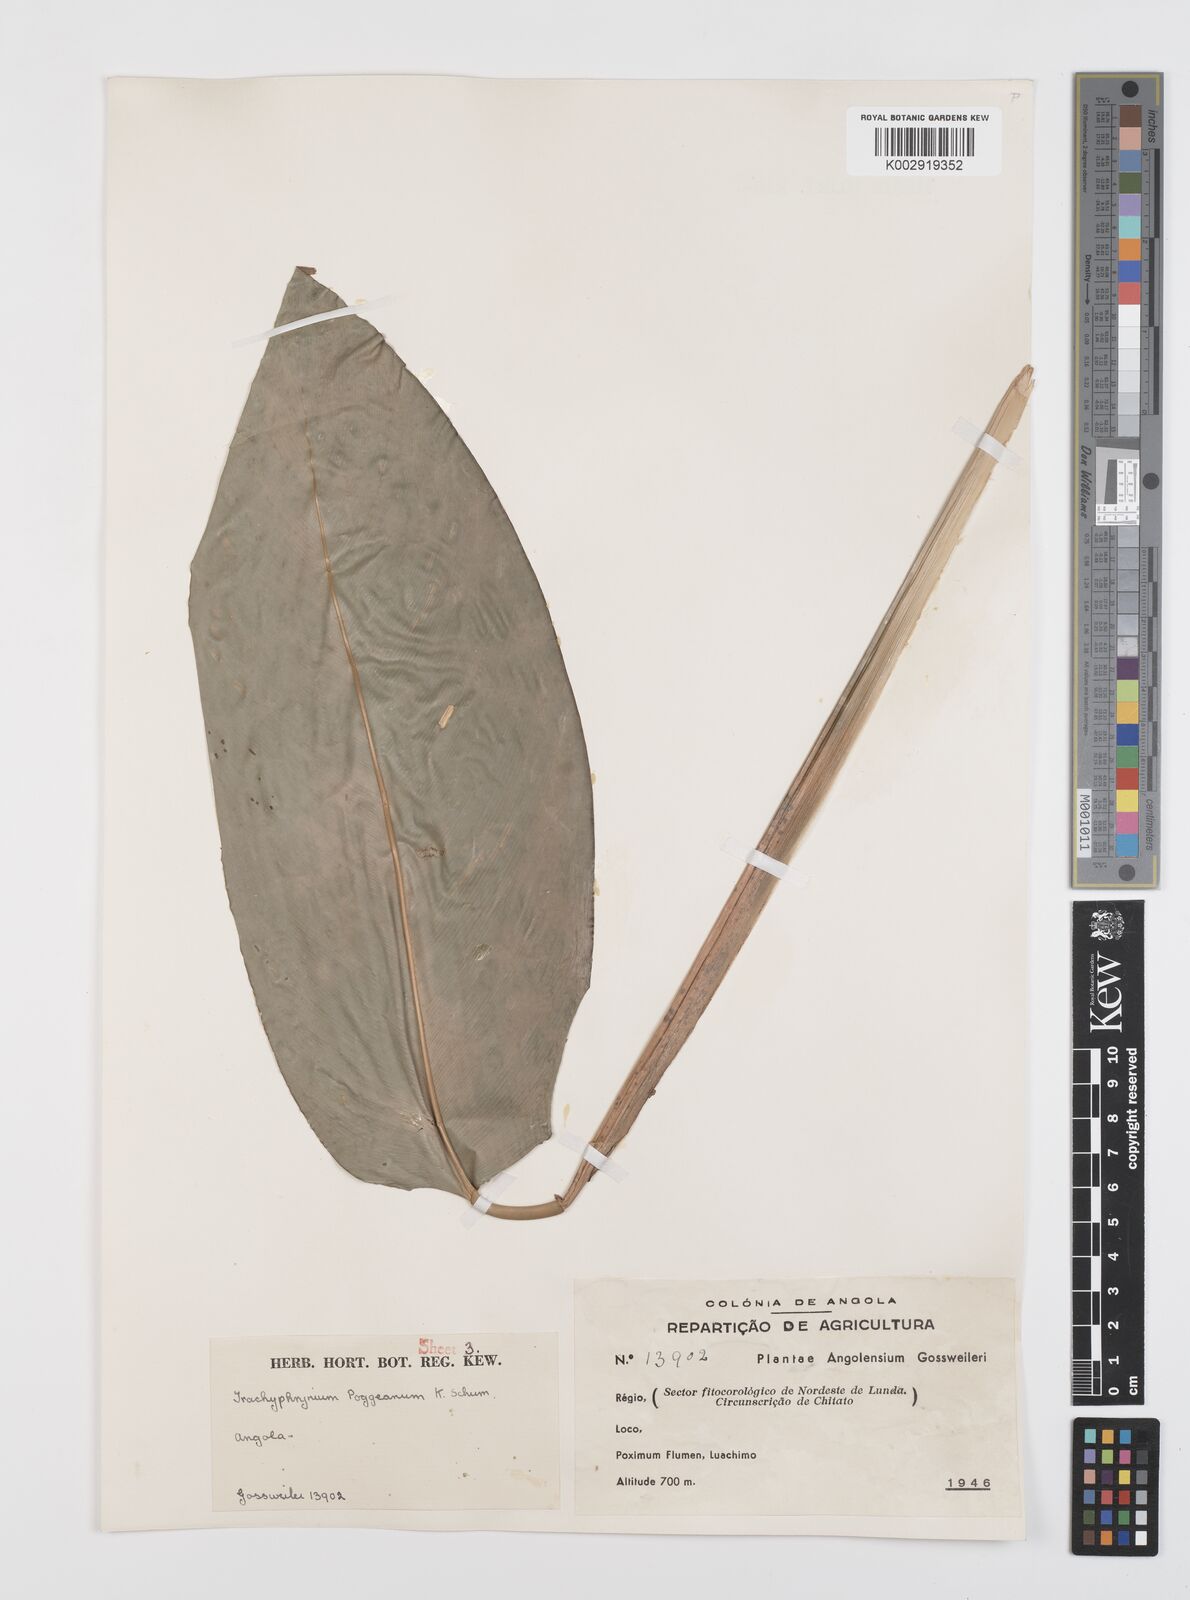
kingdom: Plantae
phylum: Tracheophyta
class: Liliopsida
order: Zingiberales
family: Marantaceae
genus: Hypselodelphys
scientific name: Hypselodelphys scandens
